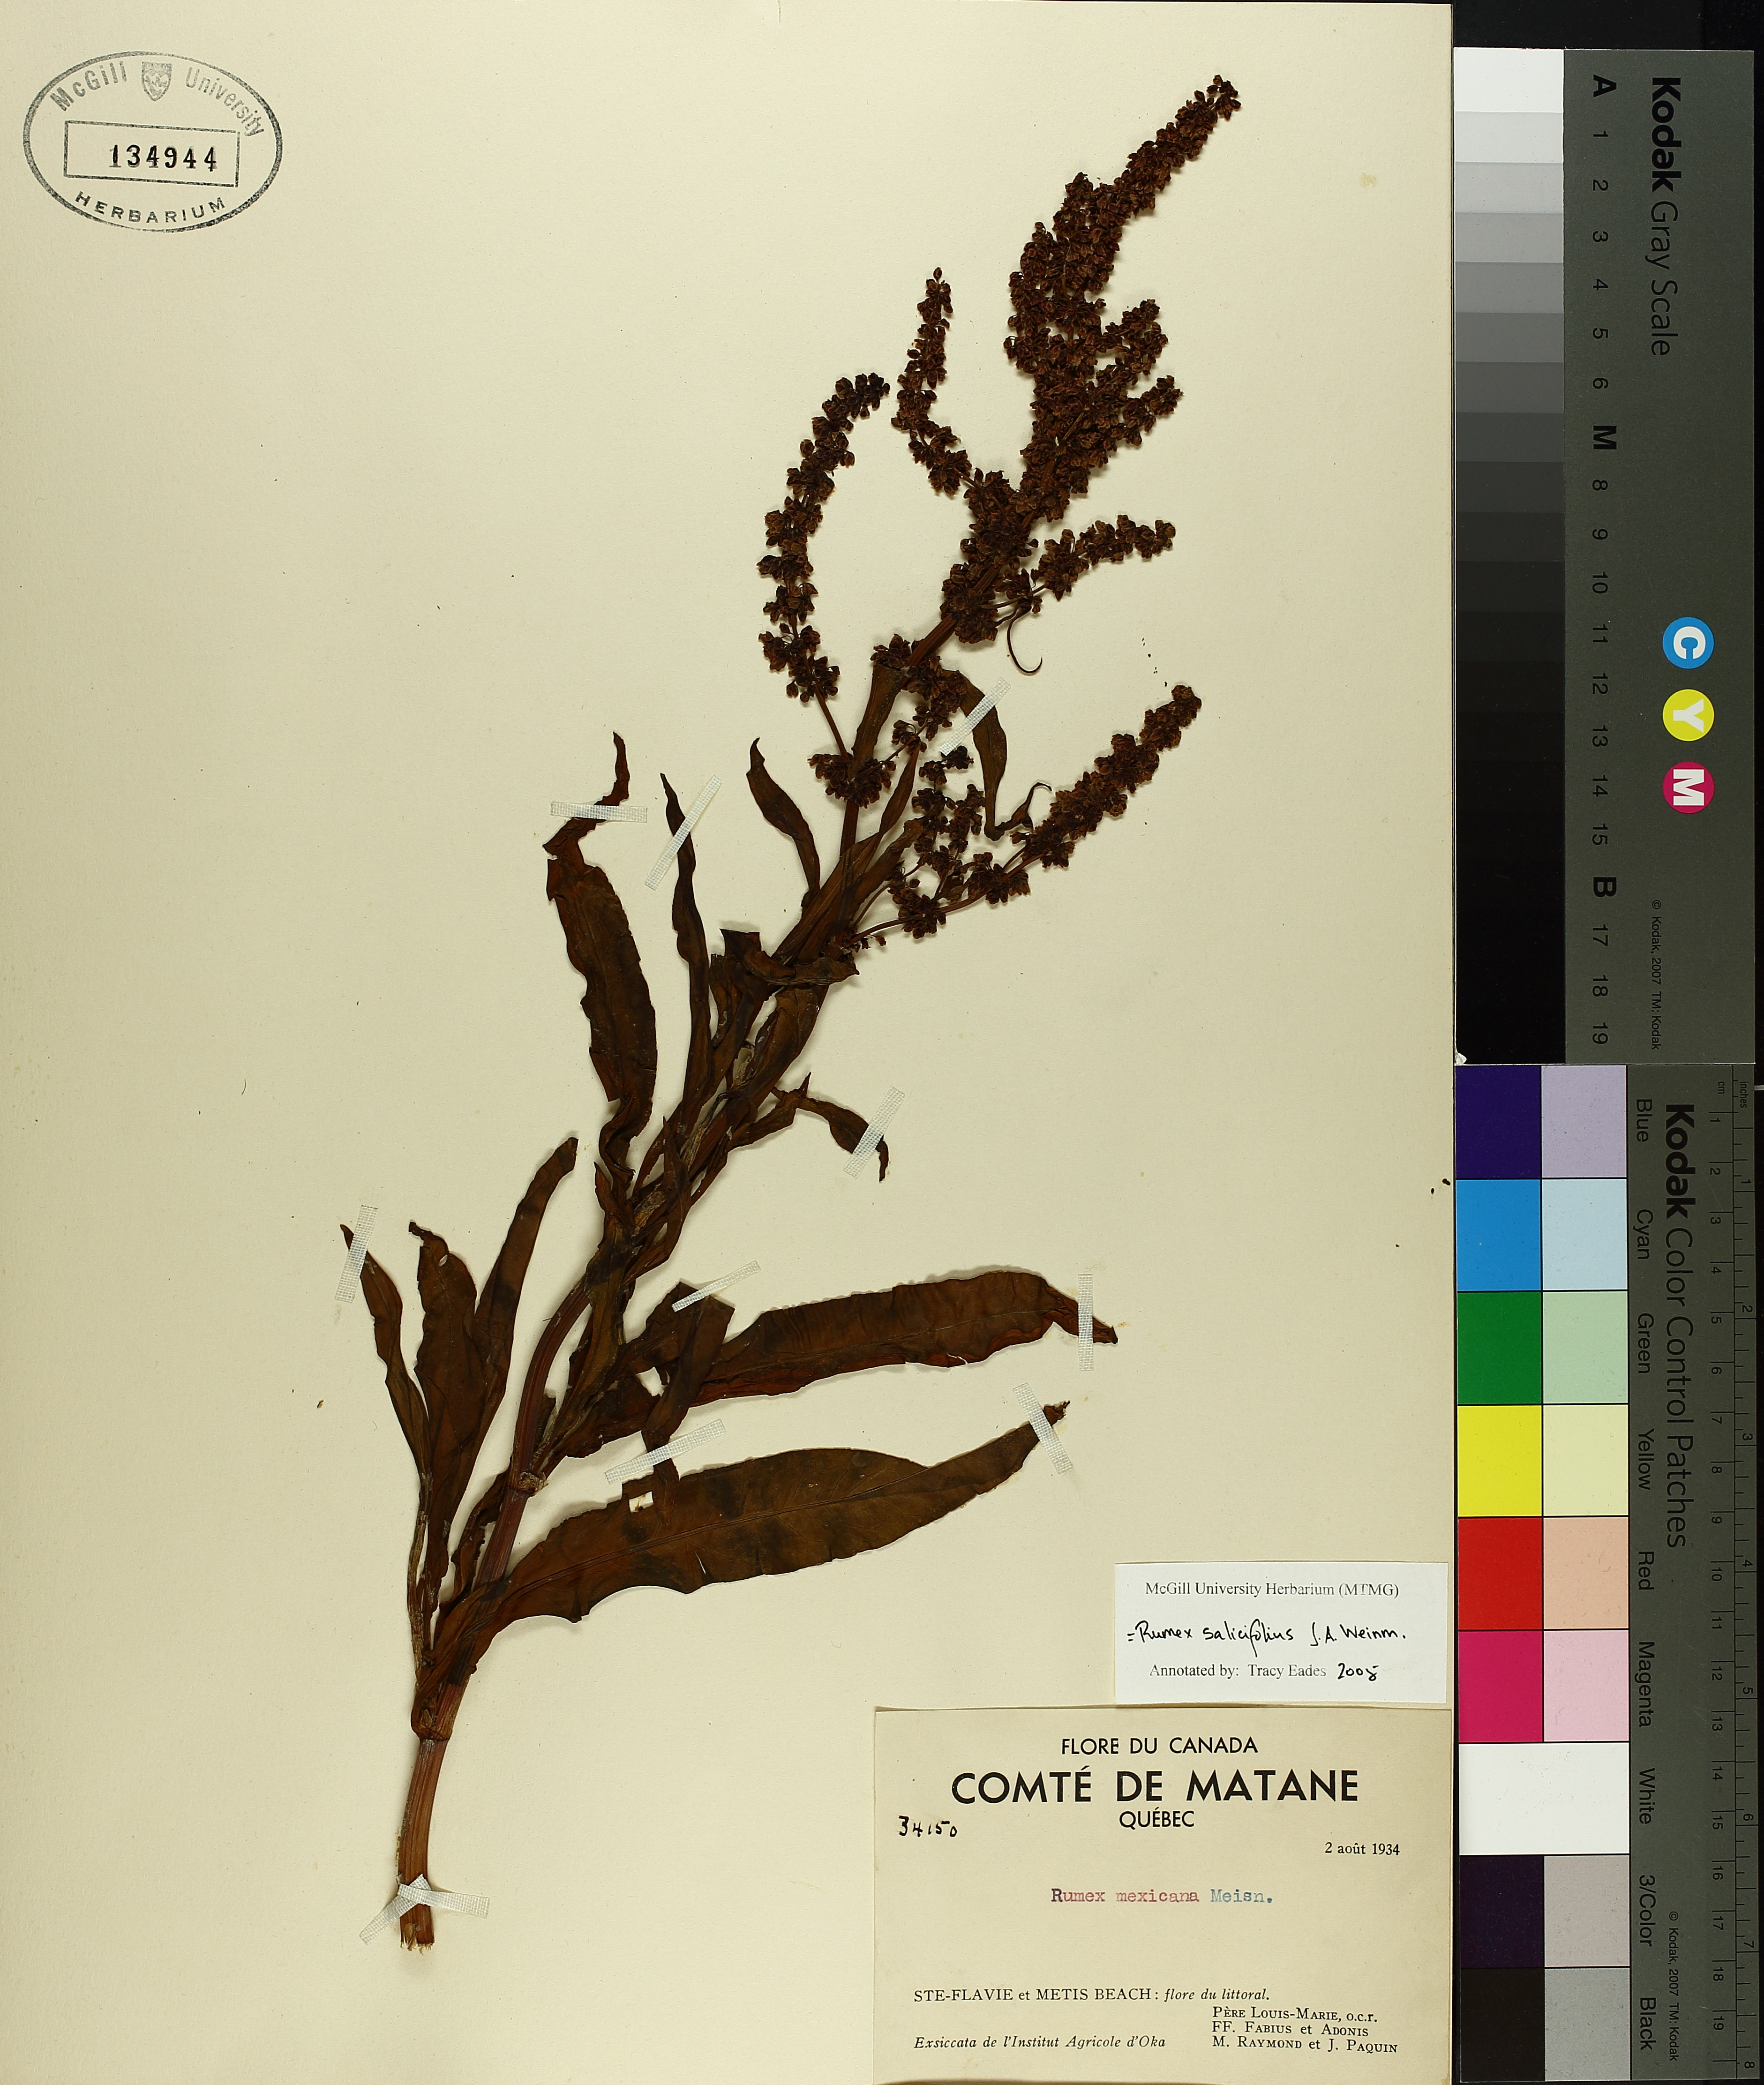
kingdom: Plantae
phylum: Tracheophyta
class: Magnoliopsida
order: Caryophyllales
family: Polygonaceae
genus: Rumex
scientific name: Rumex salicifolius
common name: Willow-leaved dock
